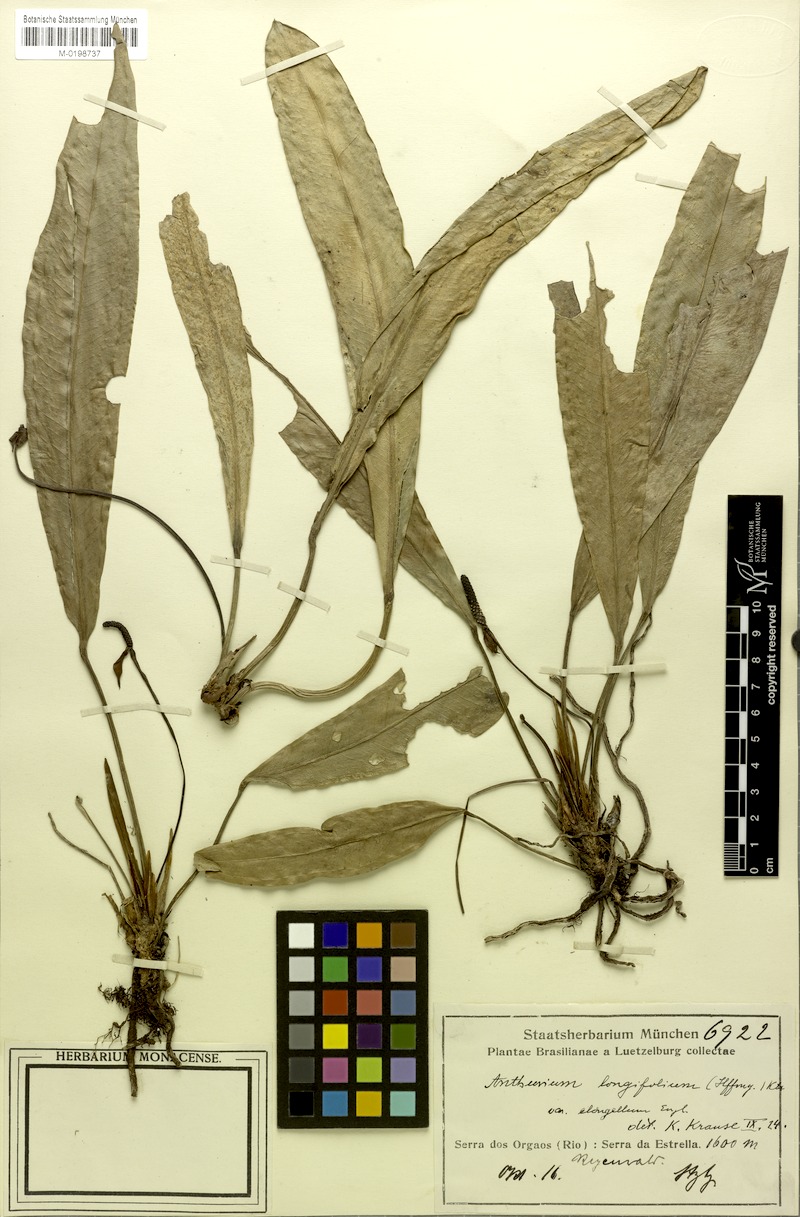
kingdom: Plantae
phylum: Tracheophyta
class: Liliopsida
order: Alismatales
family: Araceae
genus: Anthurium
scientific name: Anthurium longifolium
